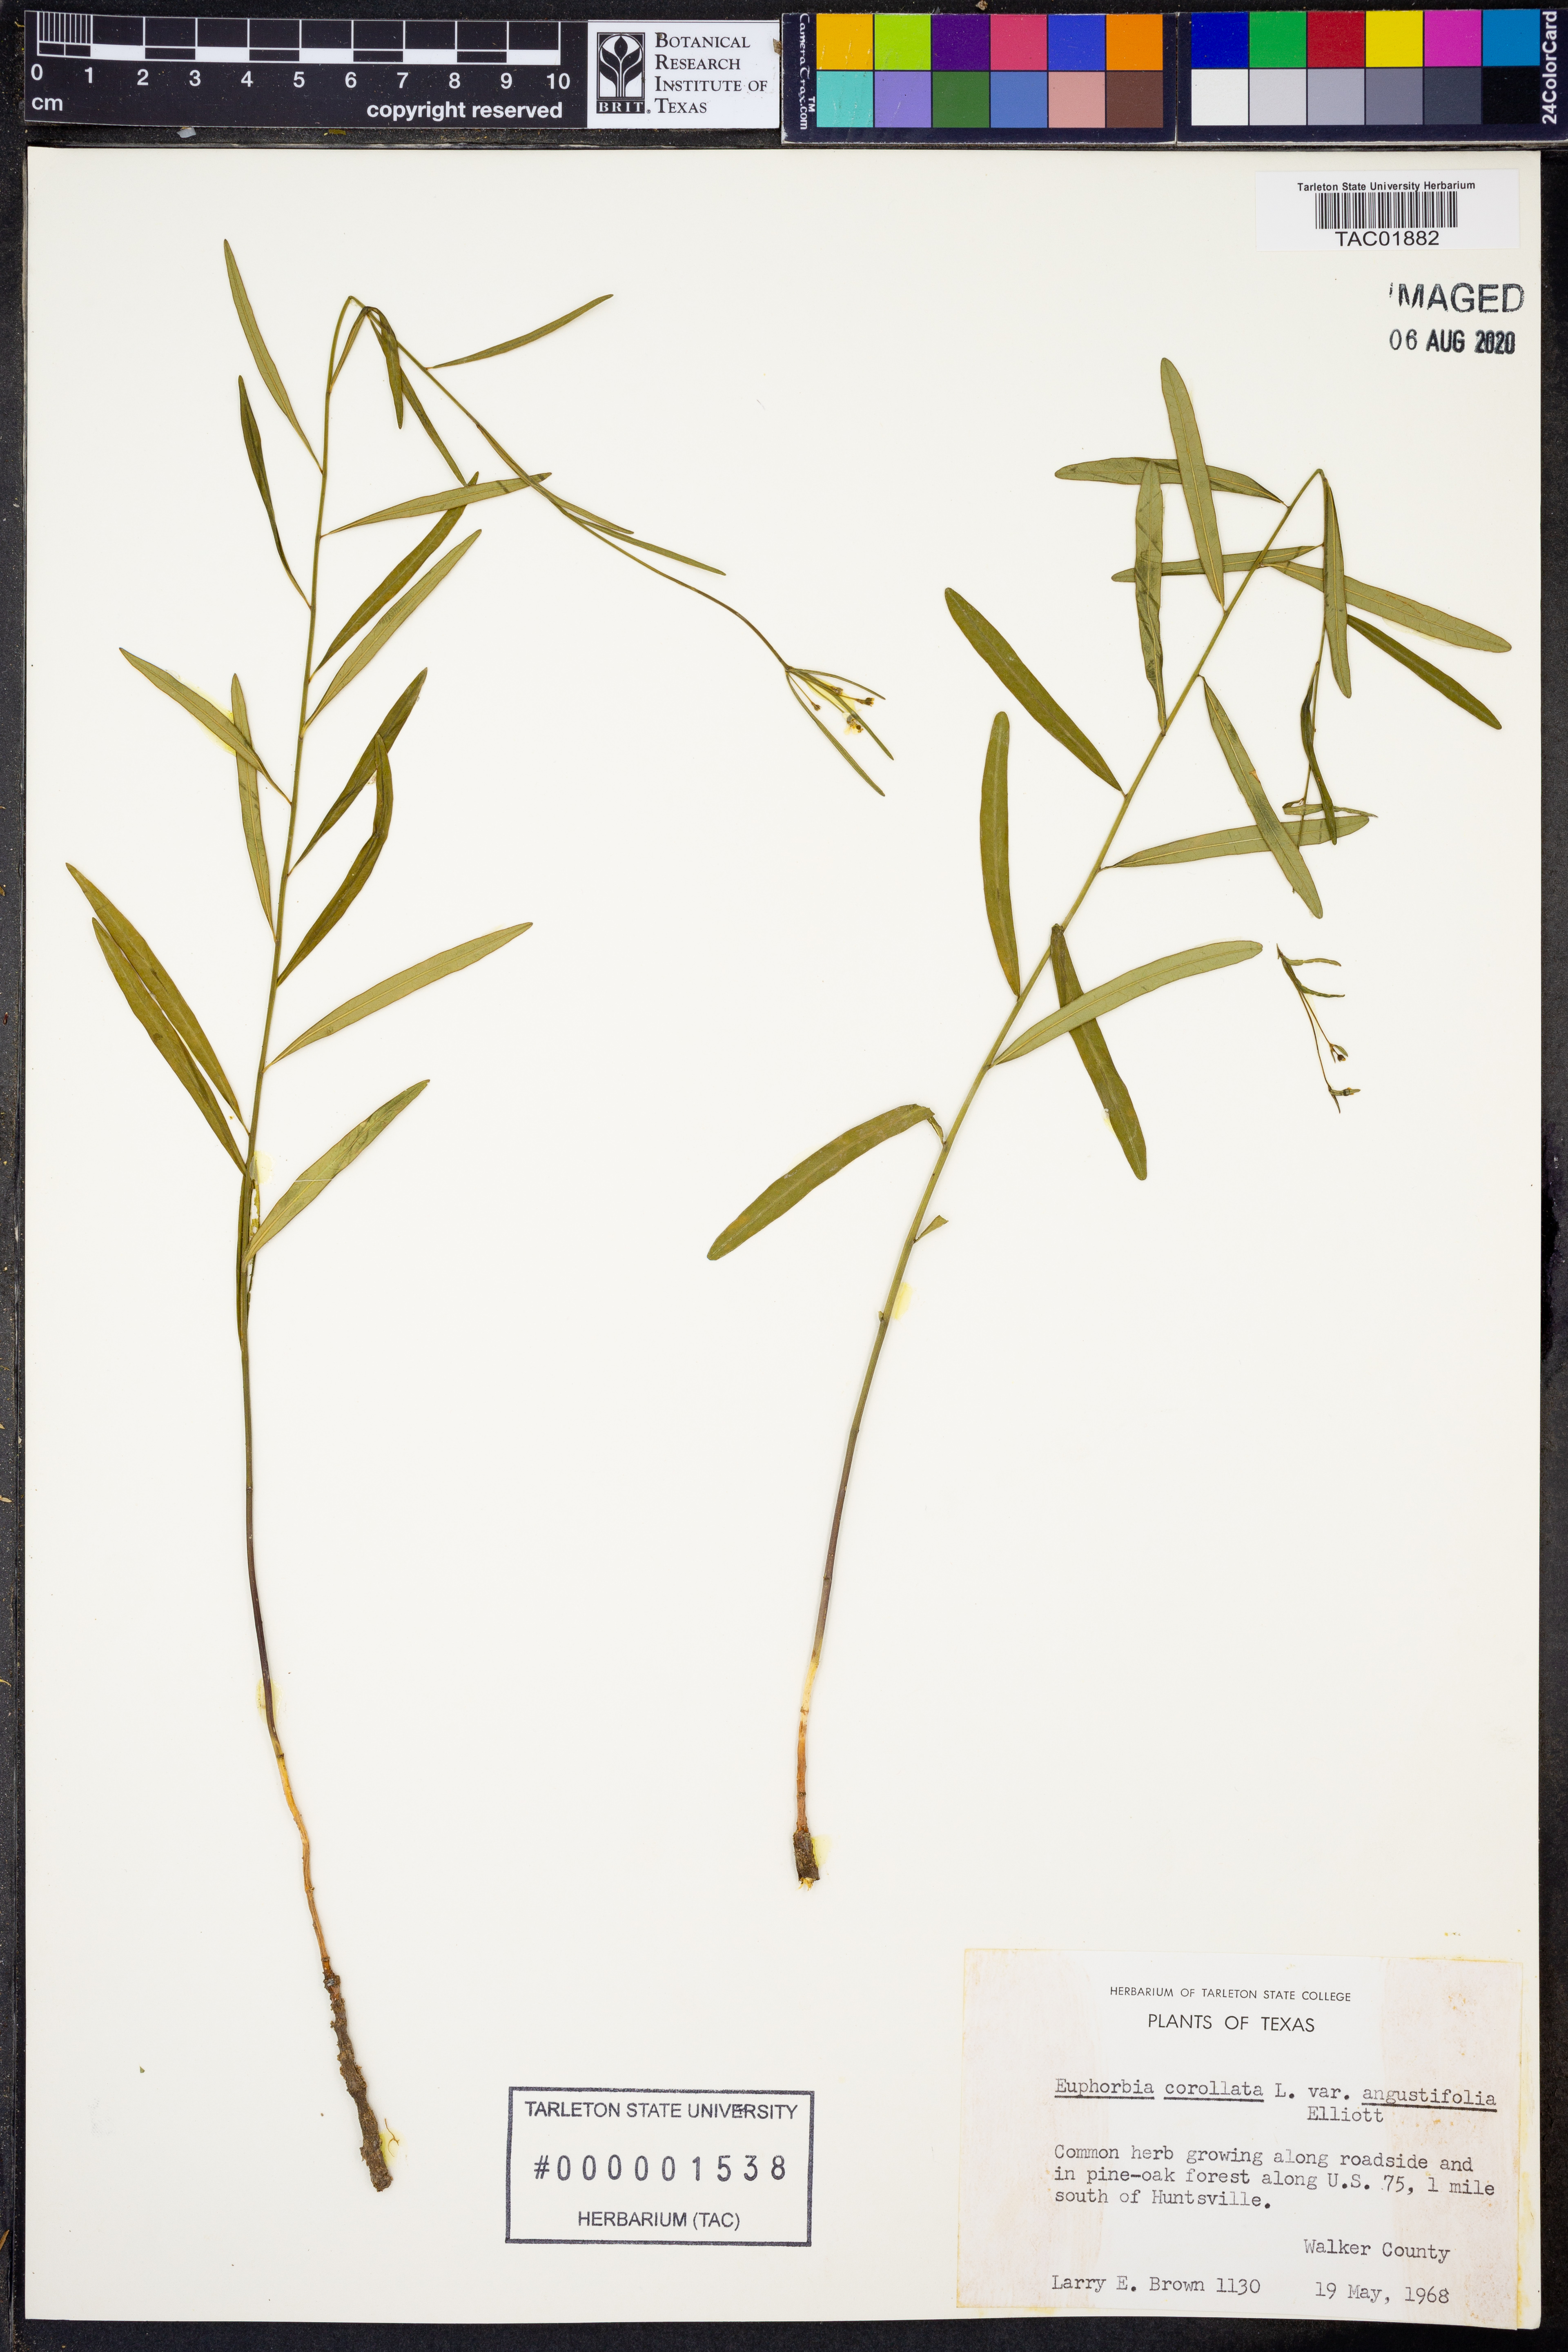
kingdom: Plantae
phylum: Tracheophyta
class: Magnoliopsida
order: Malpighiales
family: Euphorbiaceae
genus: Euphorbia
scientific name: Euphorbia discoidalis
